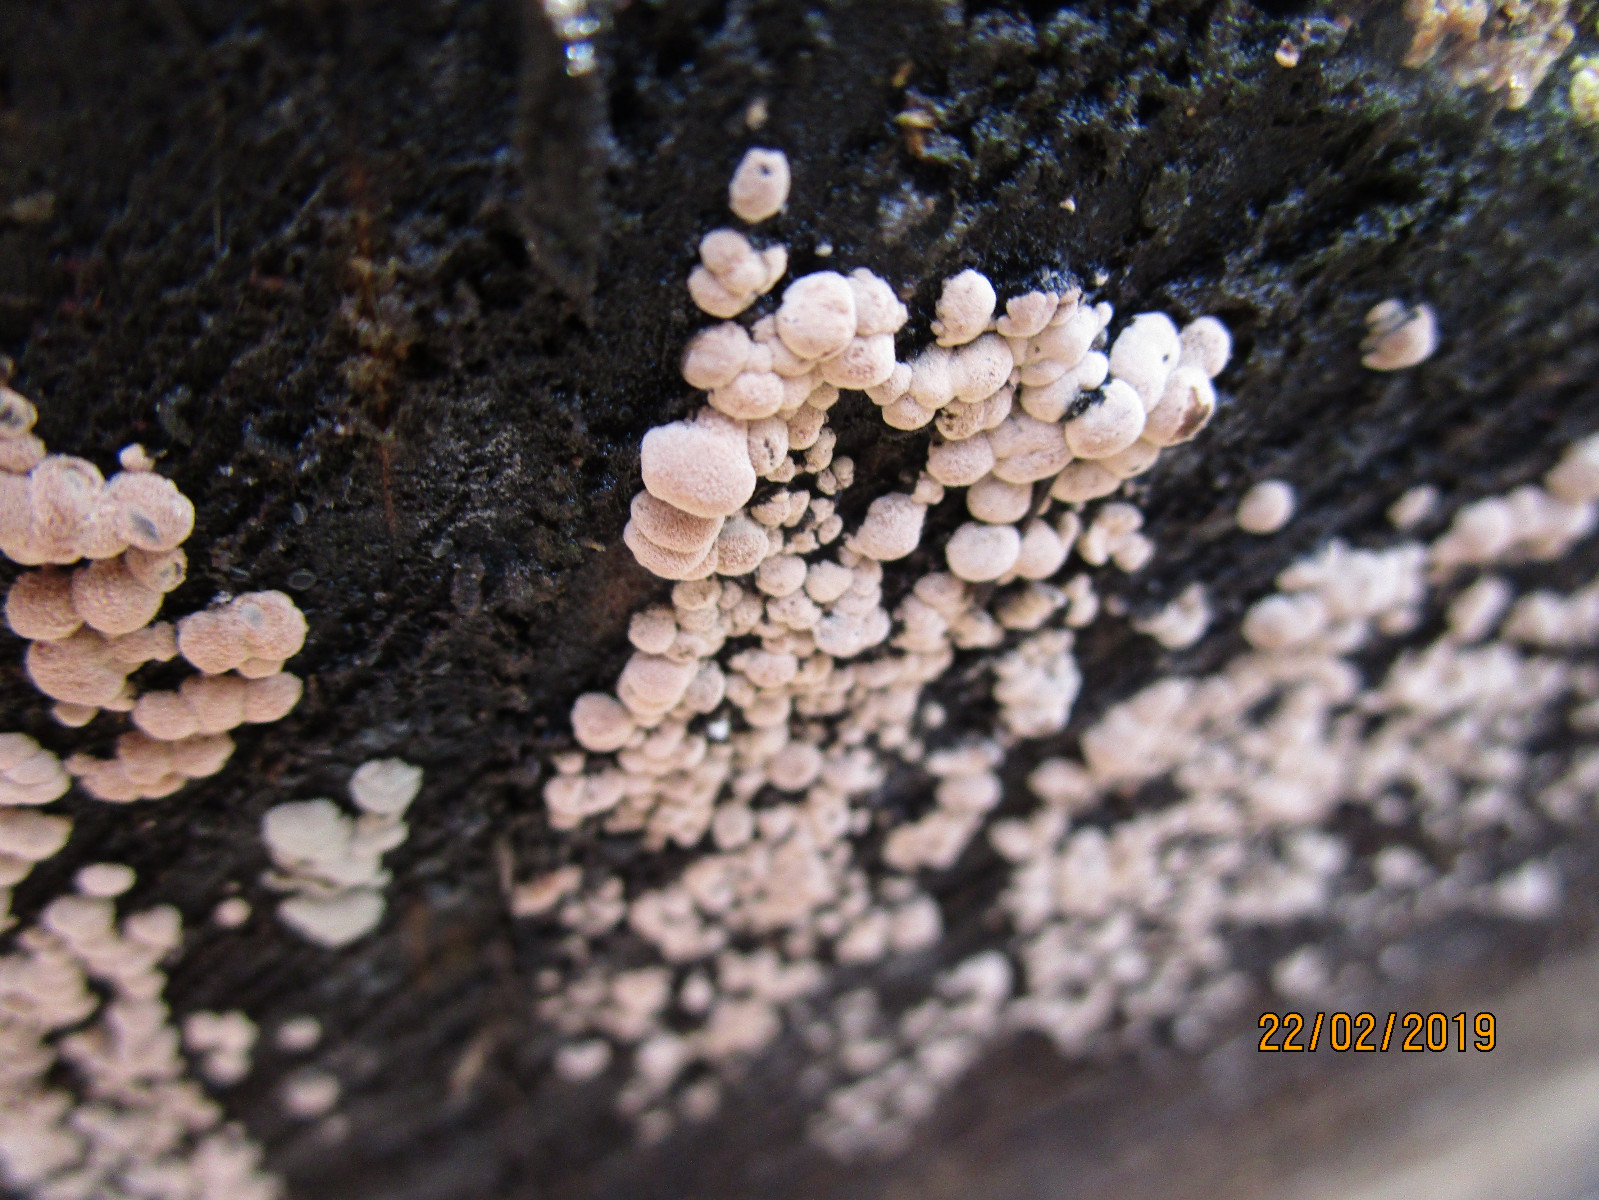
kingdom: Fungi
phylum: Ascomycota
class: Sordariomycetes
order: Xylariales
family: Hypoxylaceae
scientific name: Hypoxylaceae
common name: kulbærfamilien
